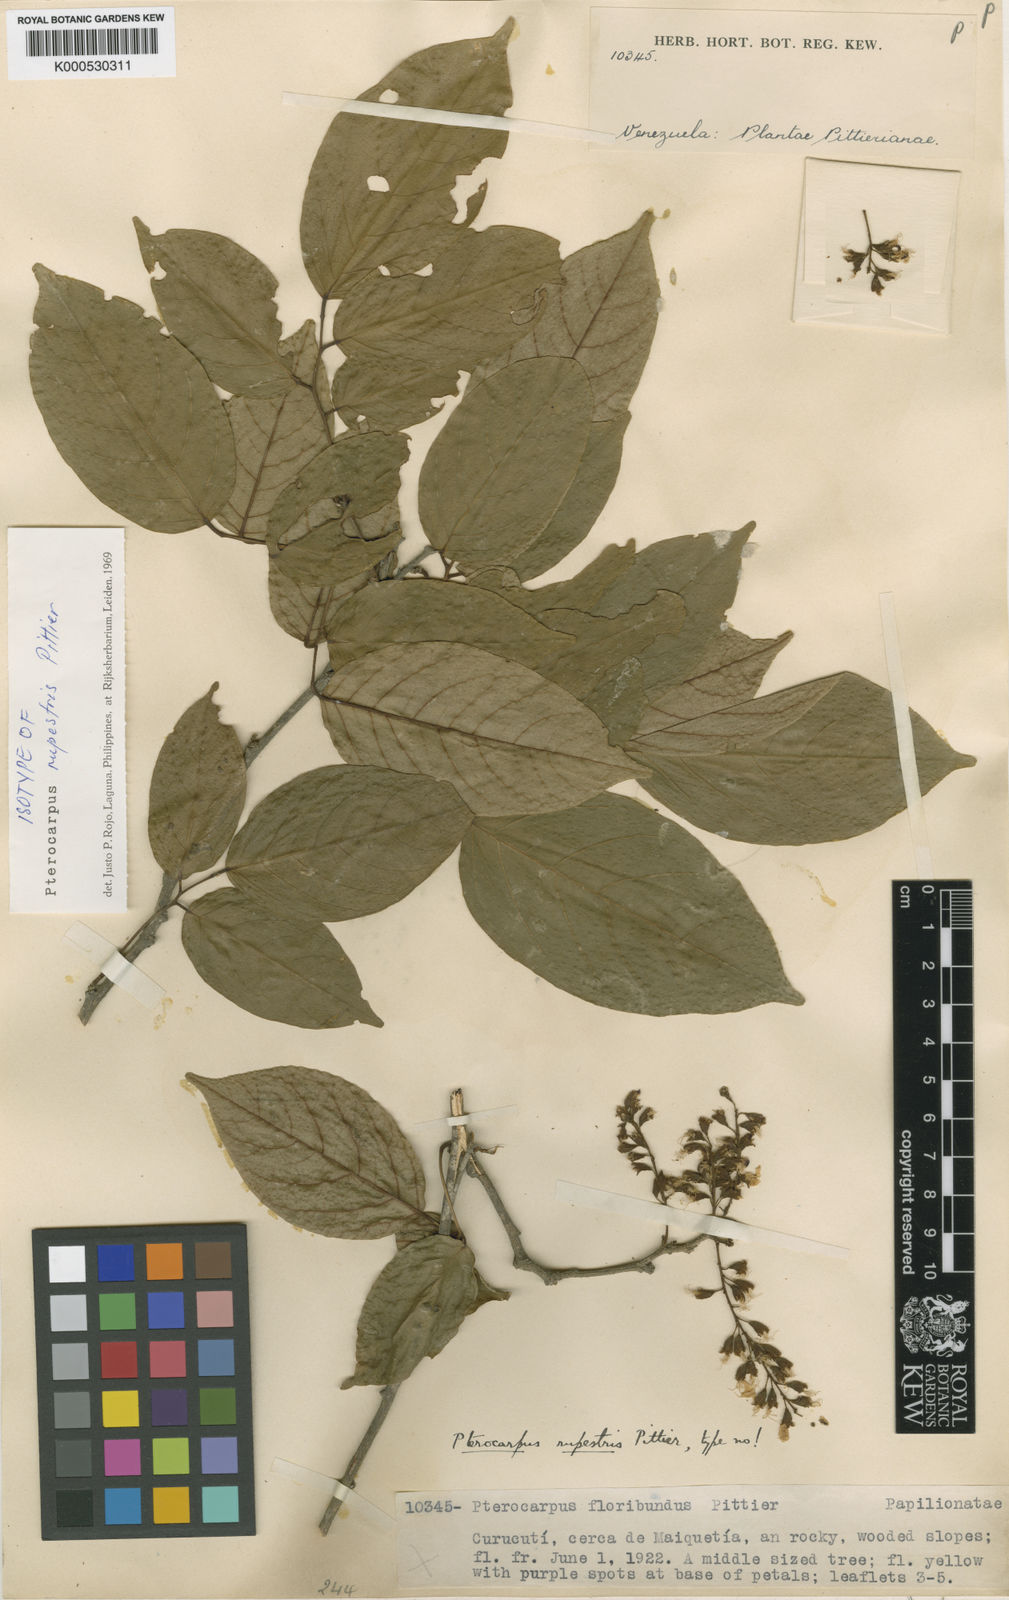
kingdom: Plantae
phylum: Tracheophyta
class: Magnoliopsida
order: Fabales
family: Fabaceae
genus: Pterocarpus
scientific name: Pterocarpus rohrii
